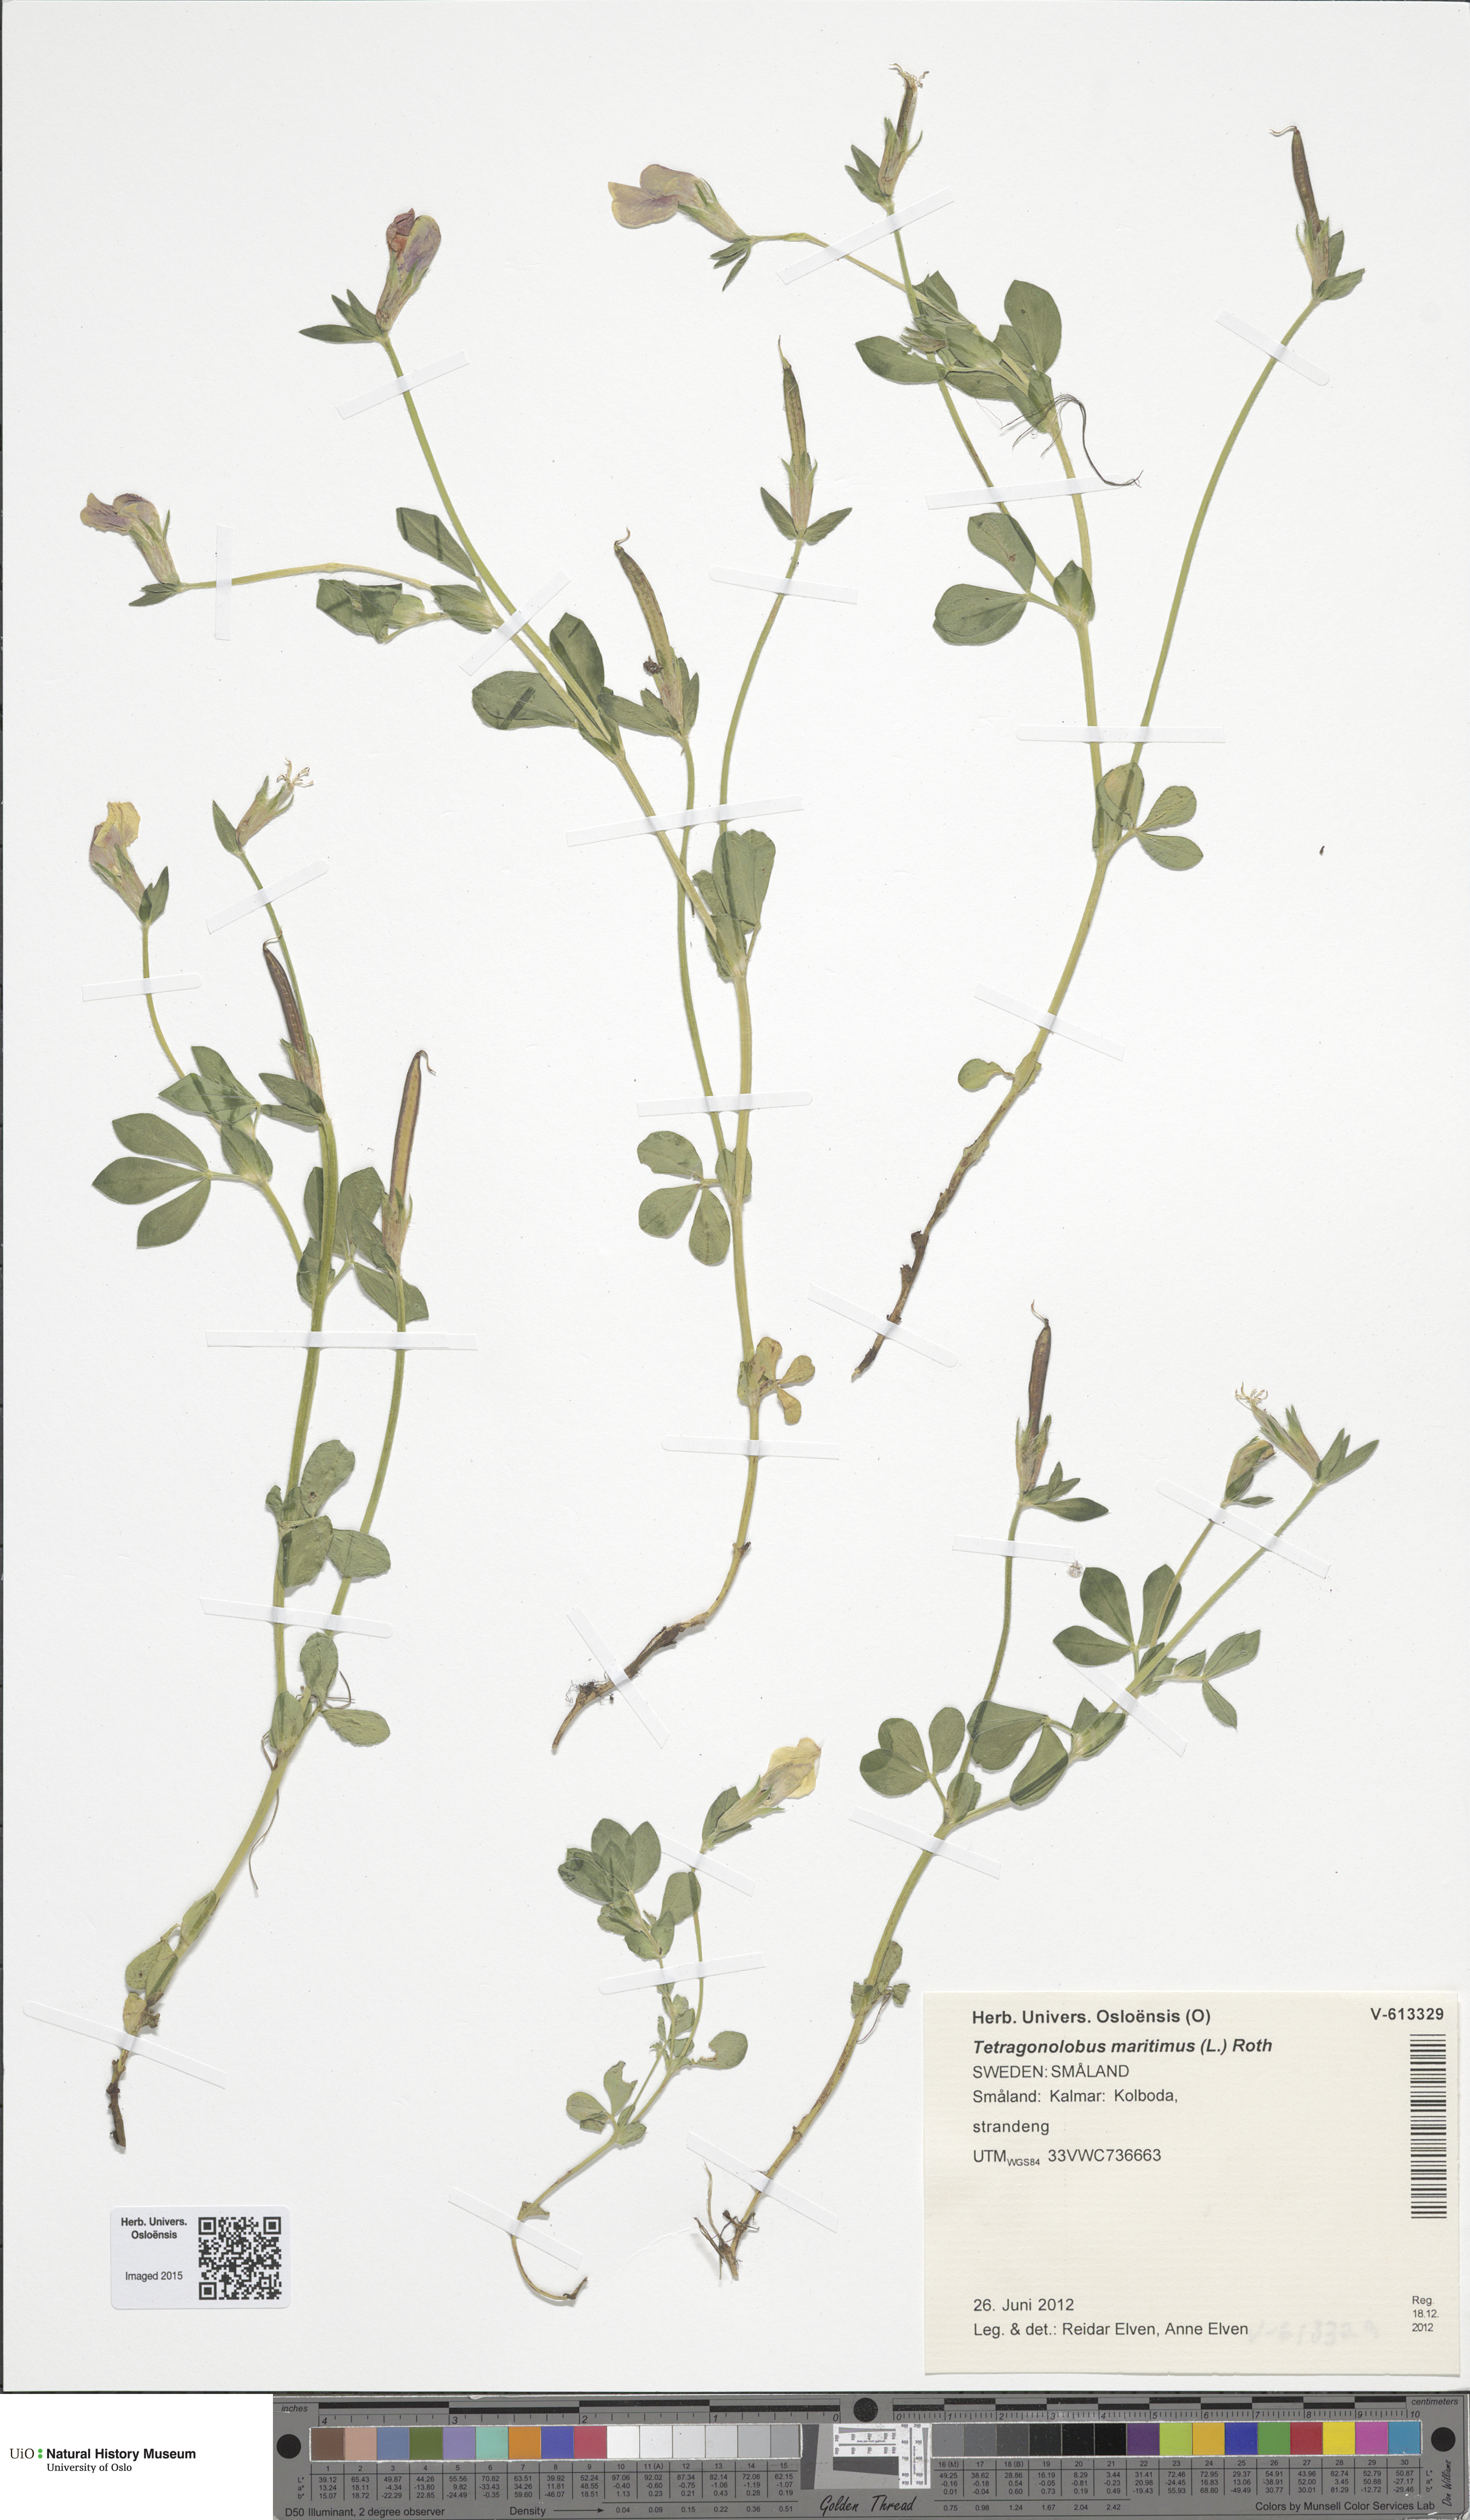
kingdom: Plantae
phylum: Tracheophyta
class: Magnoliopsida
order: Fabales
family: Fabaceae
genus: Lotus
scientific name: Lotus maritimus
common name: Dragon's-teeth
